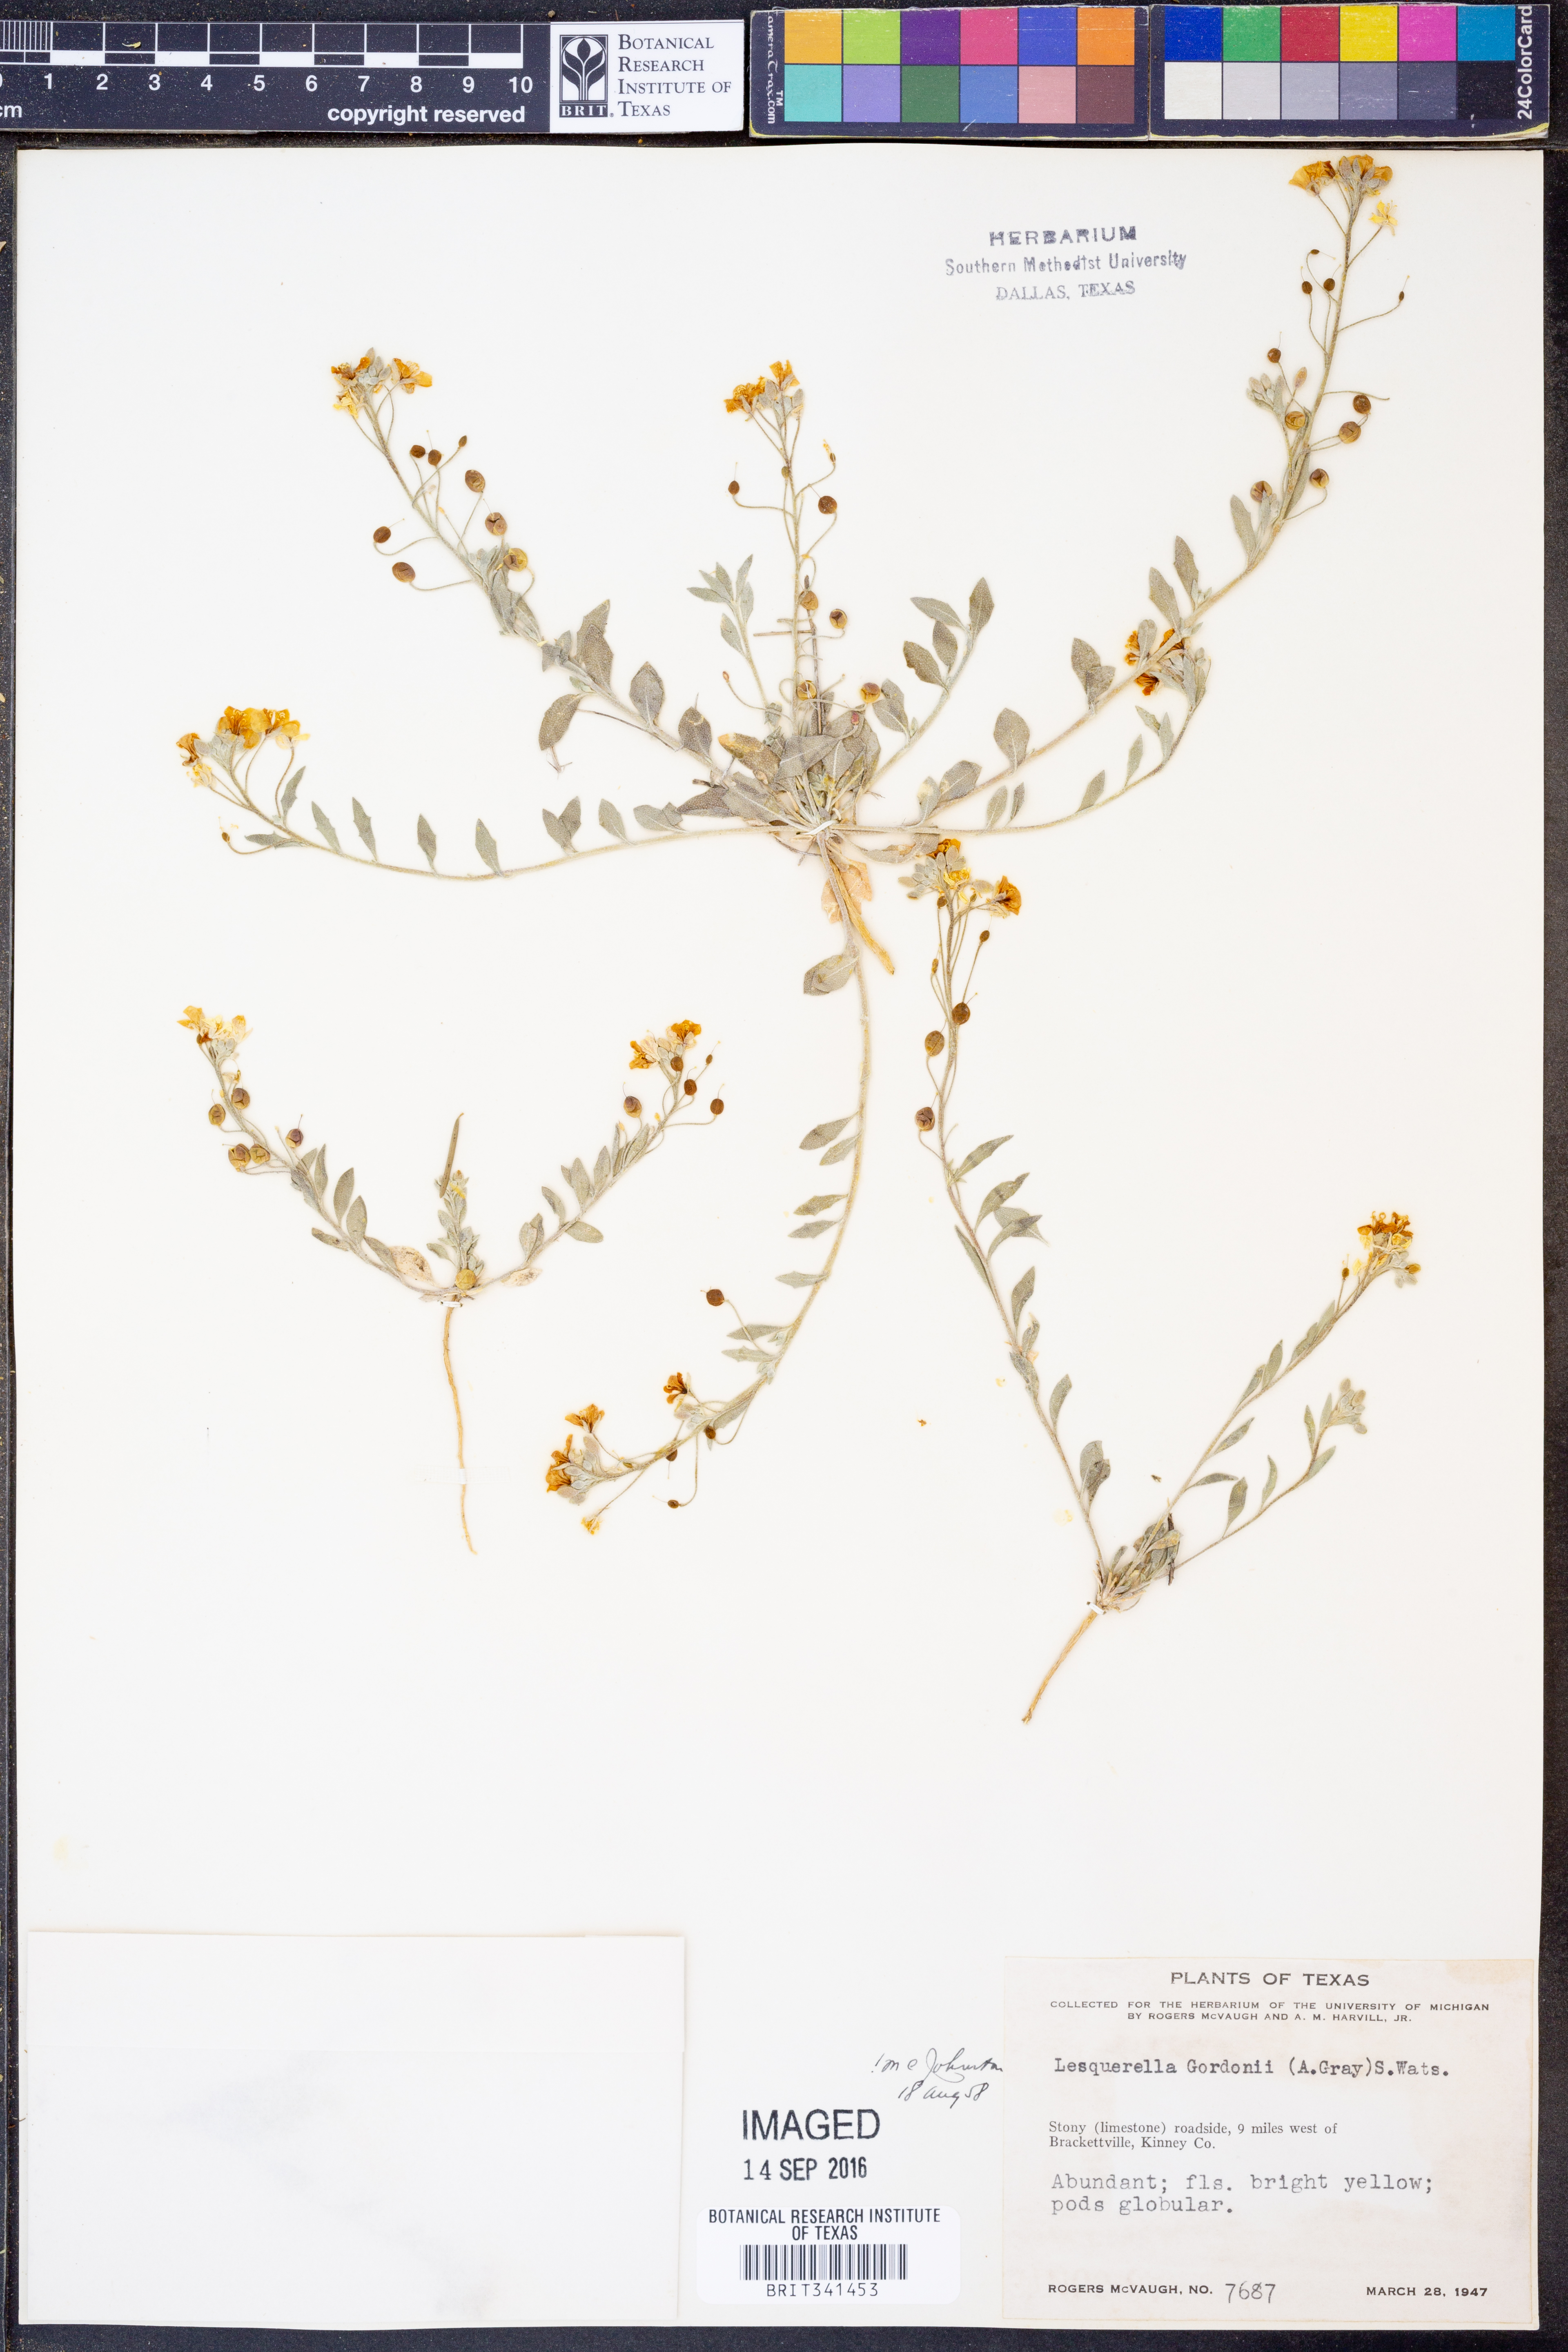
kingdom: Plantae
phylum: Tracheophyta
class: Magnoliopsida
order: Brassicales
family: Brassicaceae
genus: Physaria
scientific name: Physaria gordonii
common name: Gordon's bladderpod
